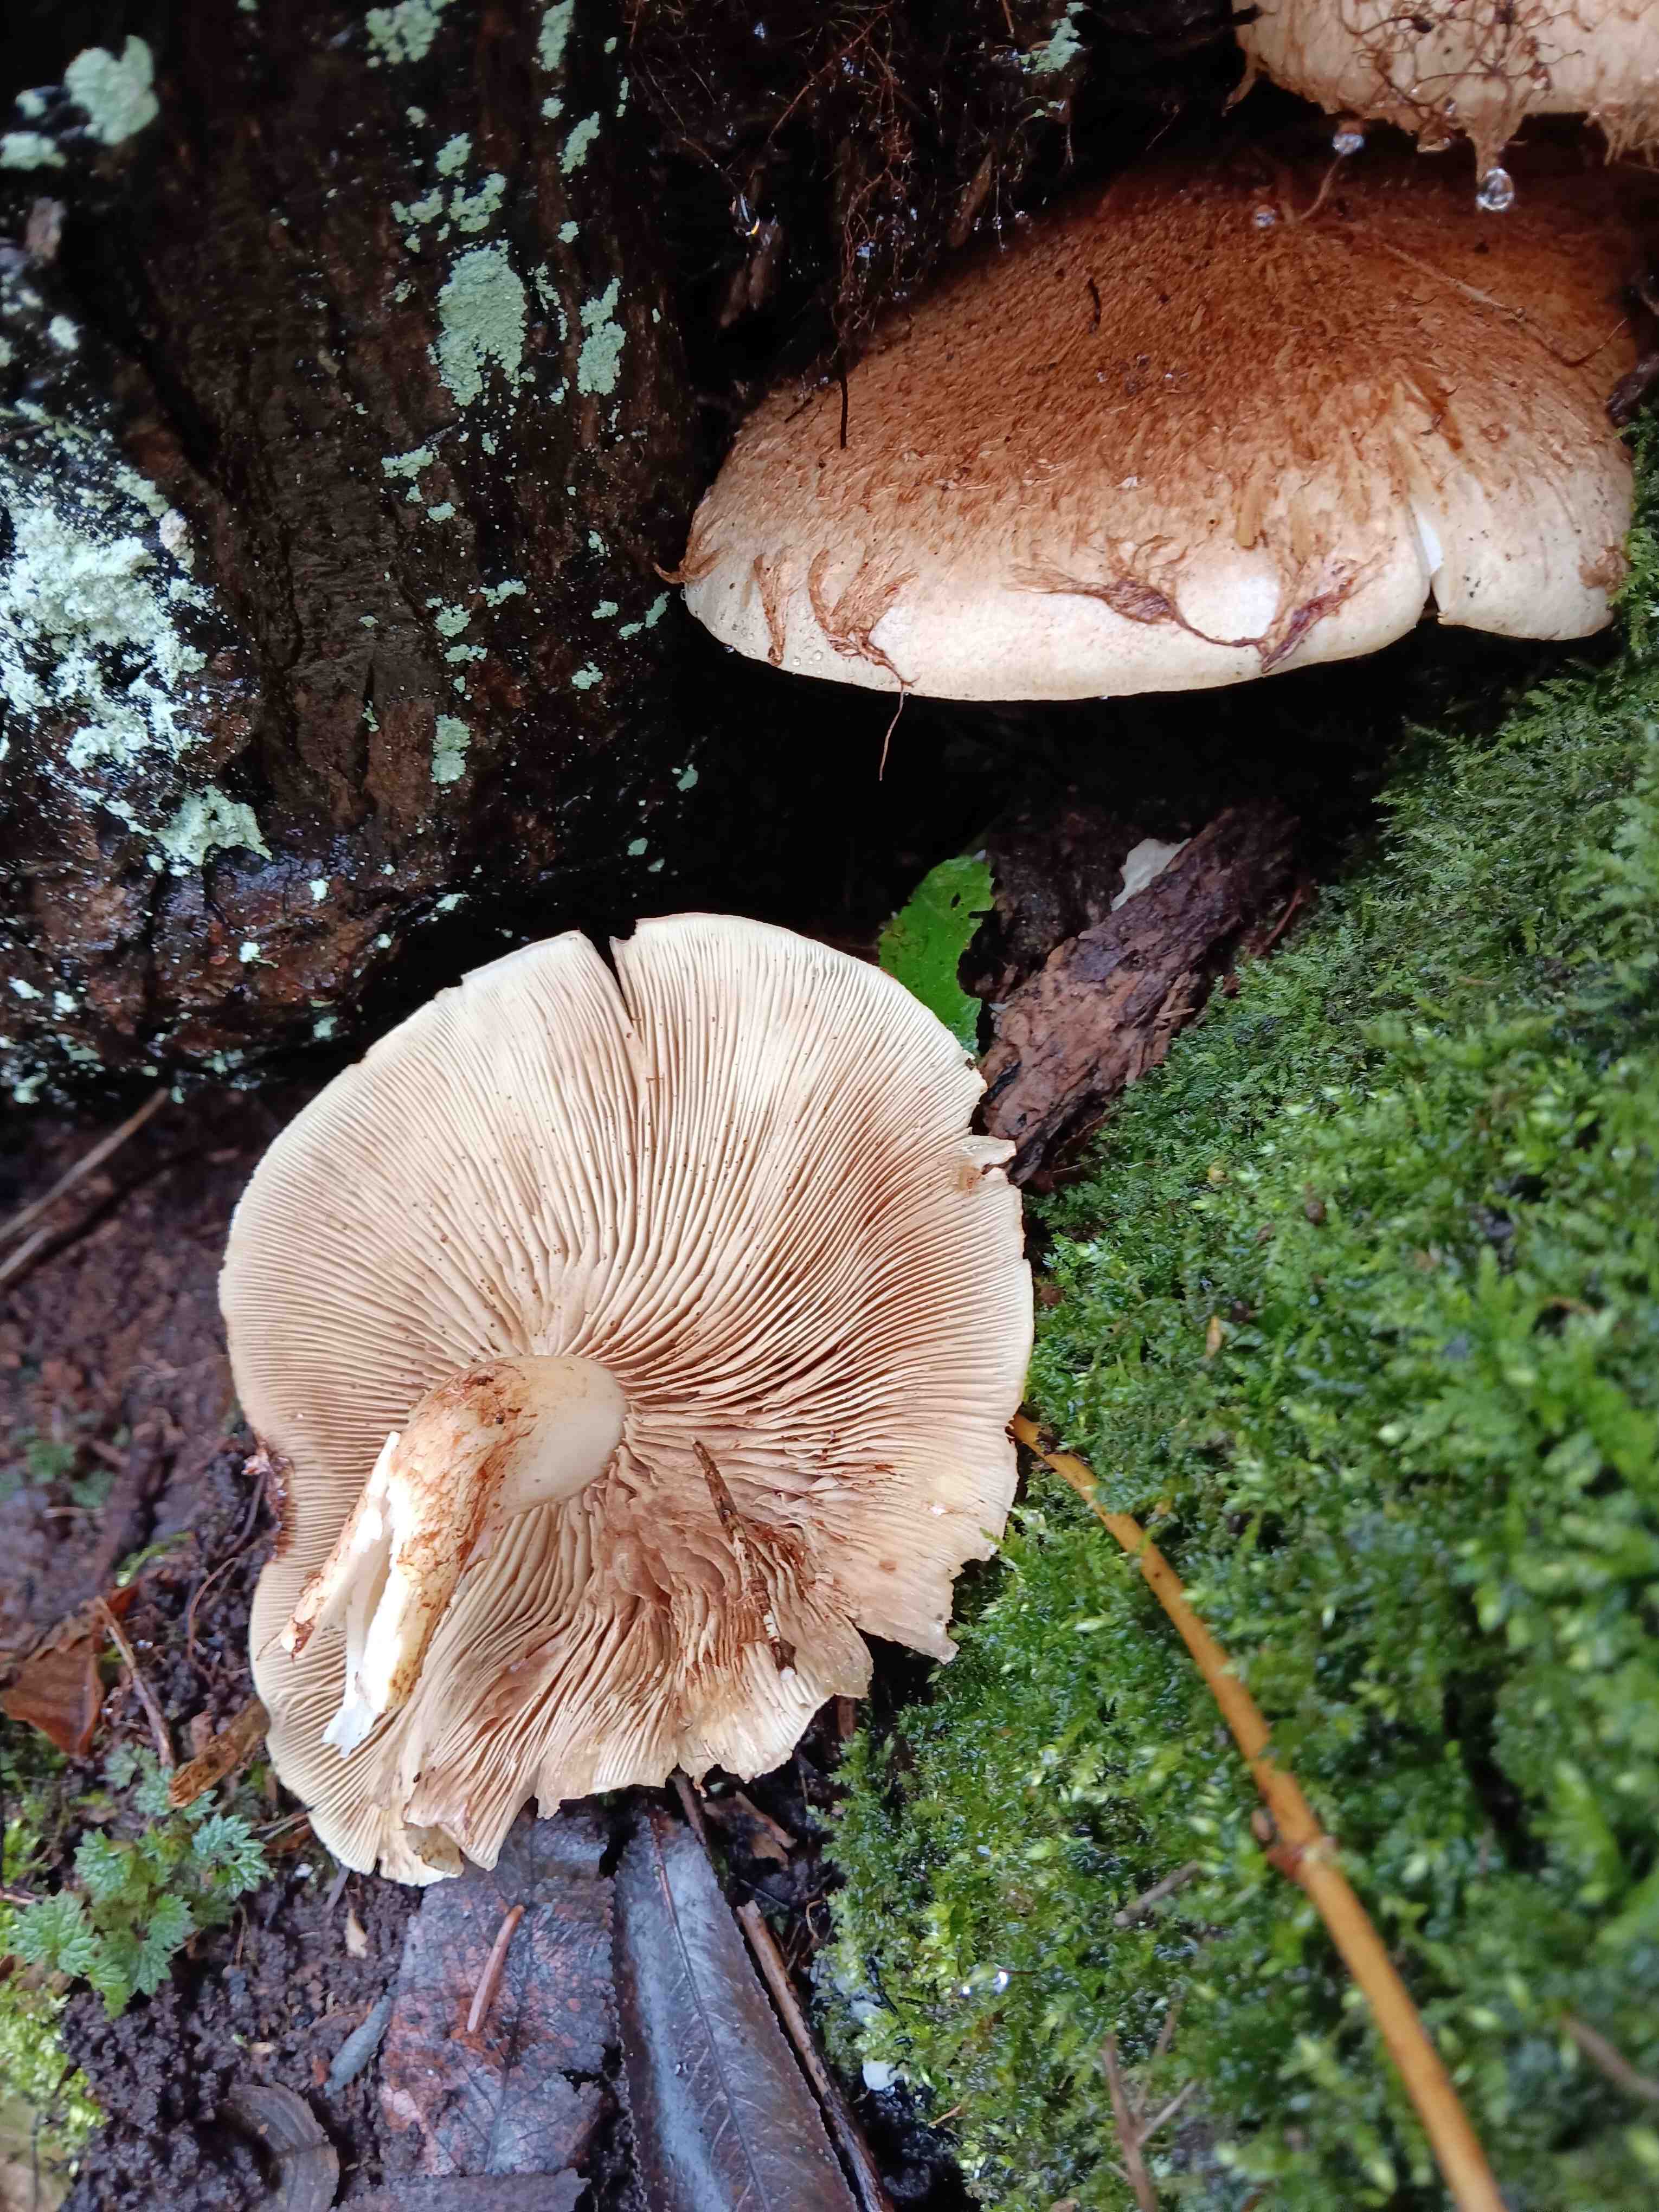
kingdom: Fungi
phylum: Basidiomycota
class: Agaricomycetes
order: Agaricales
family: Hymenogastraceae
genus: Gymnopilus
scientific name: Gymnopilus spectabilis
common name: fibret flammehat
